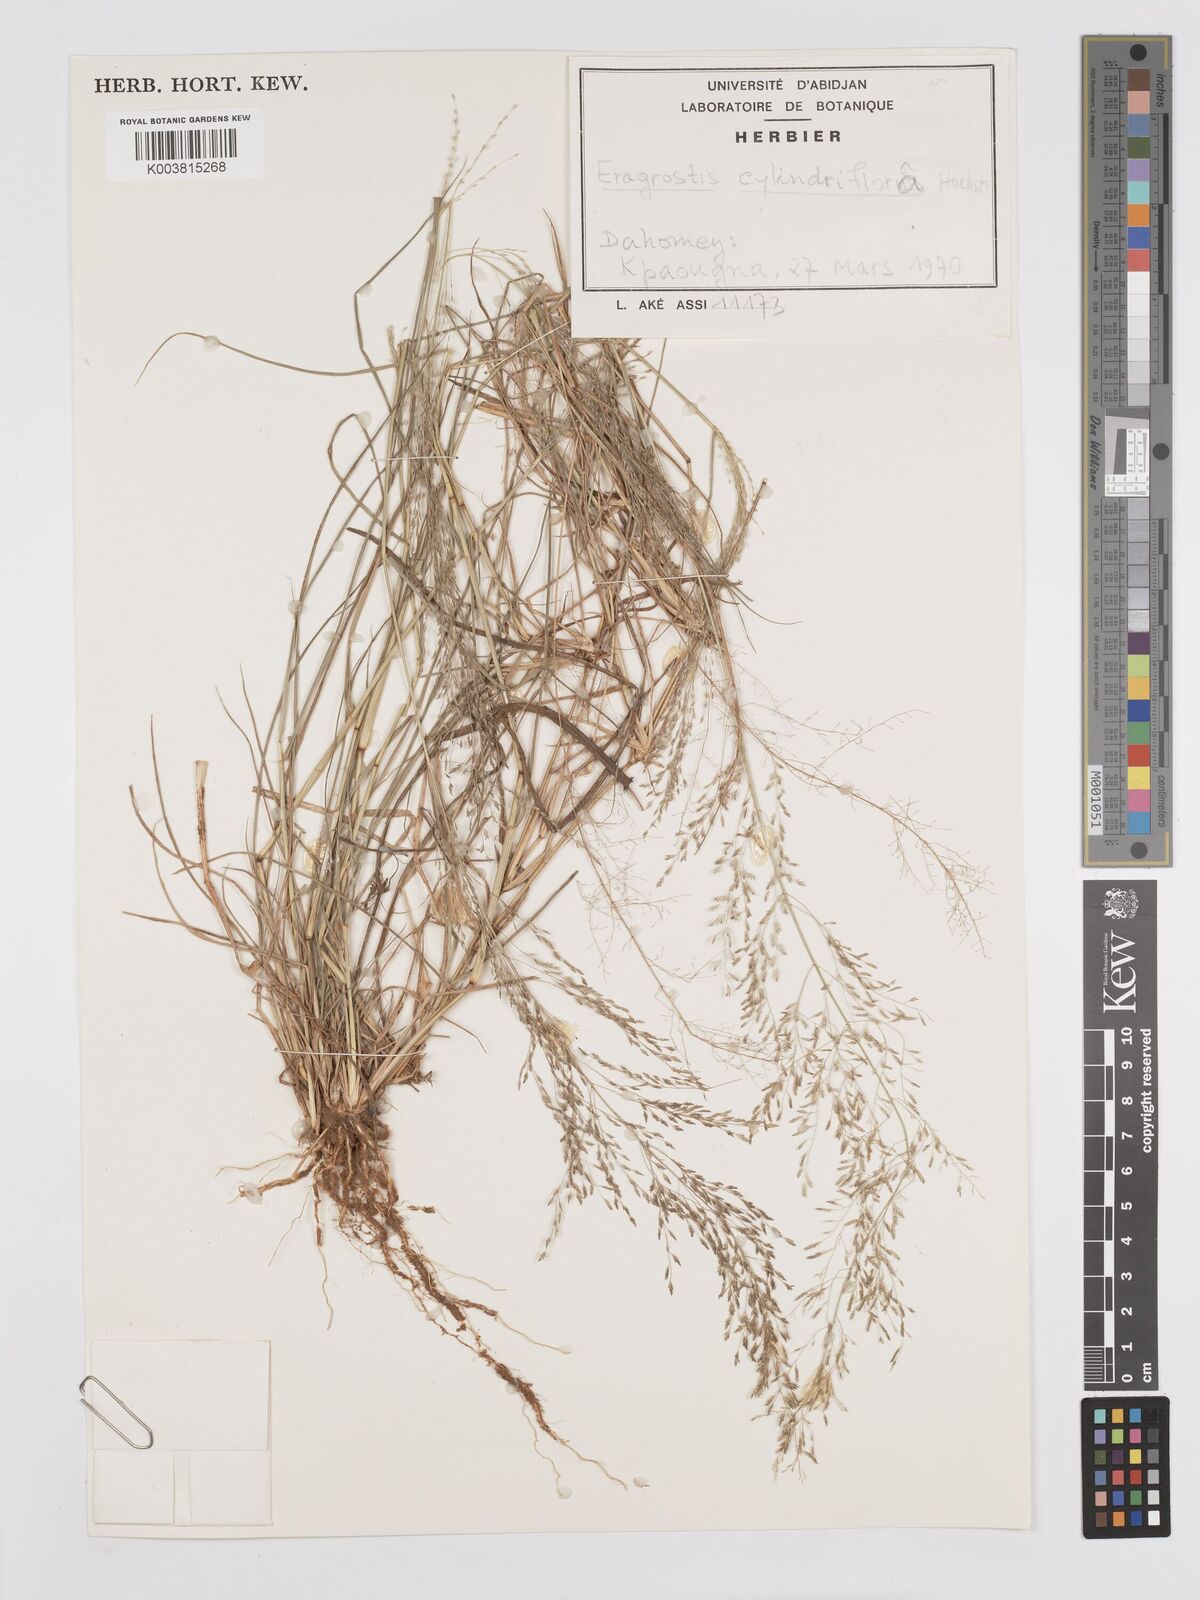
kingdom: Plantae
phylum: Tracheophyta
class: Liliopsida
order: Poales
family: Poaceae
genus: Eragrostis
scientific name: Eragrostis cylindriflora
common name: Cylinderflower lovegrass
